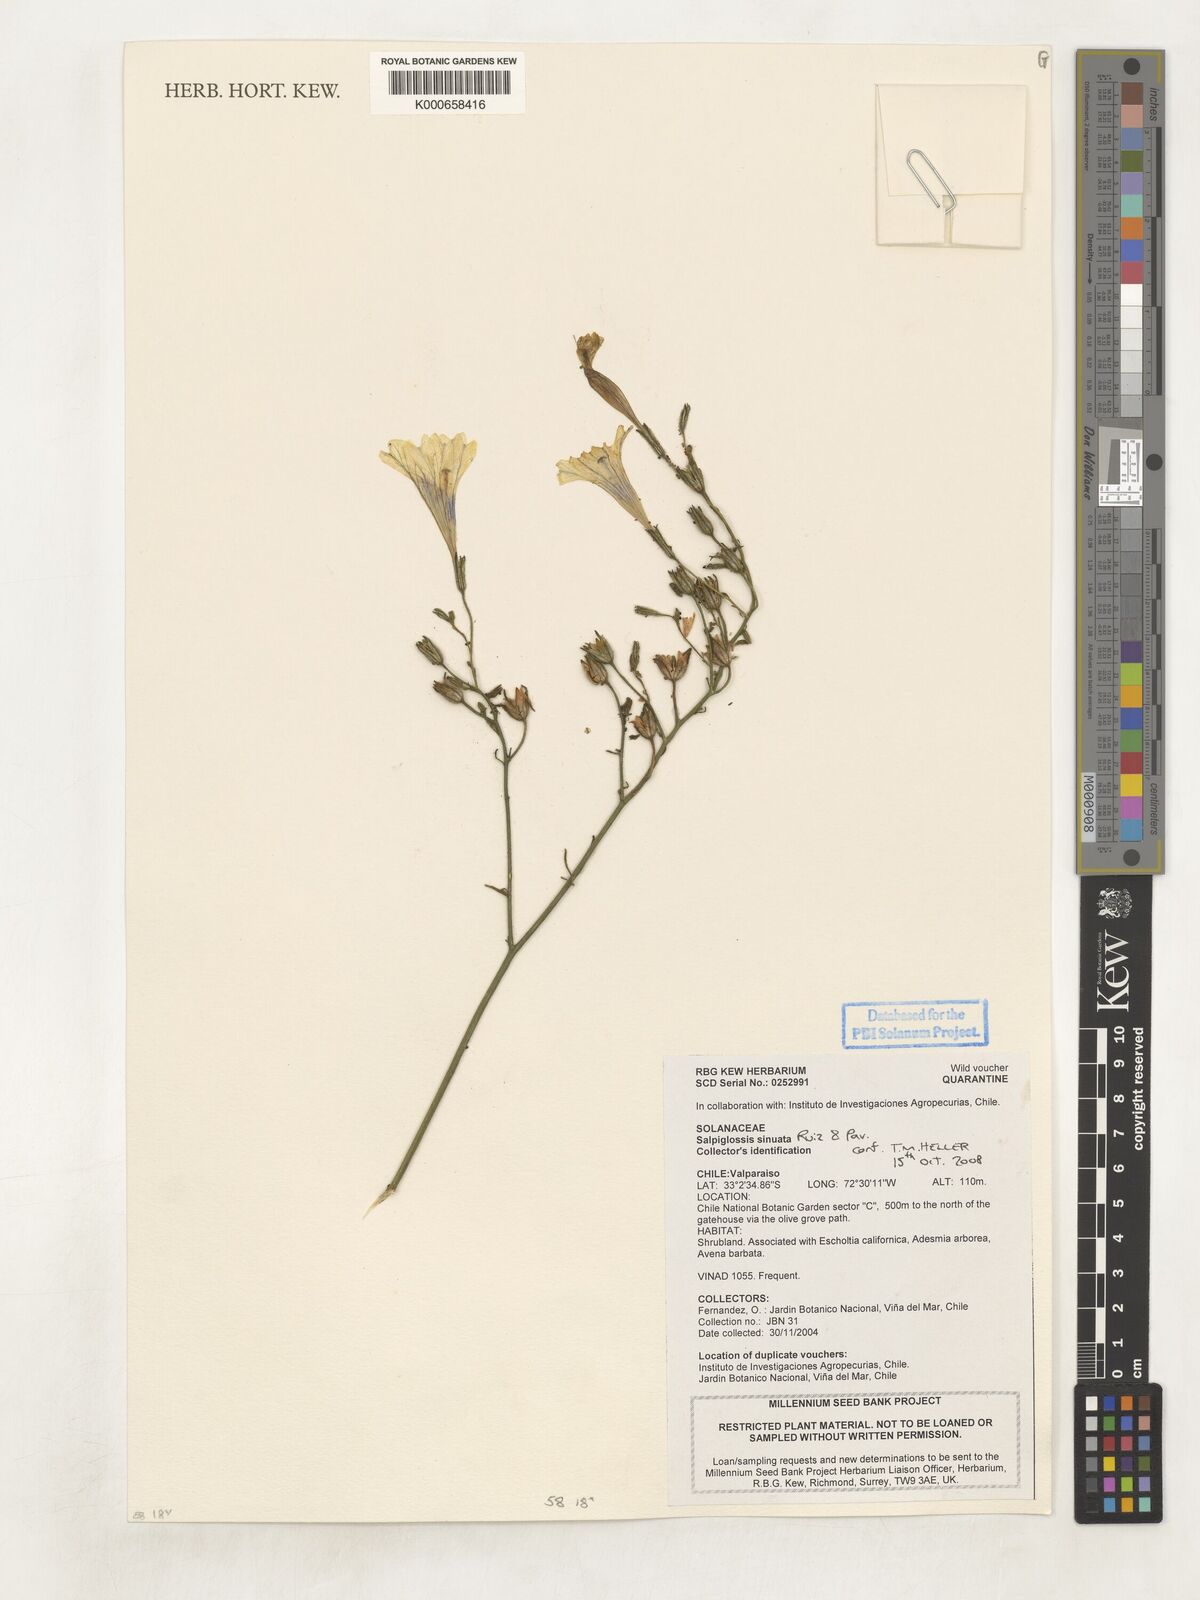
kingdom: Plantae
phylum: Tracheophyta
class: Magnoliopsida
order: Solanales
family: Solanaceae
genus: Salpiglossis
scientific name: Salpiglossis sinuata
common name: Painted-tongue
